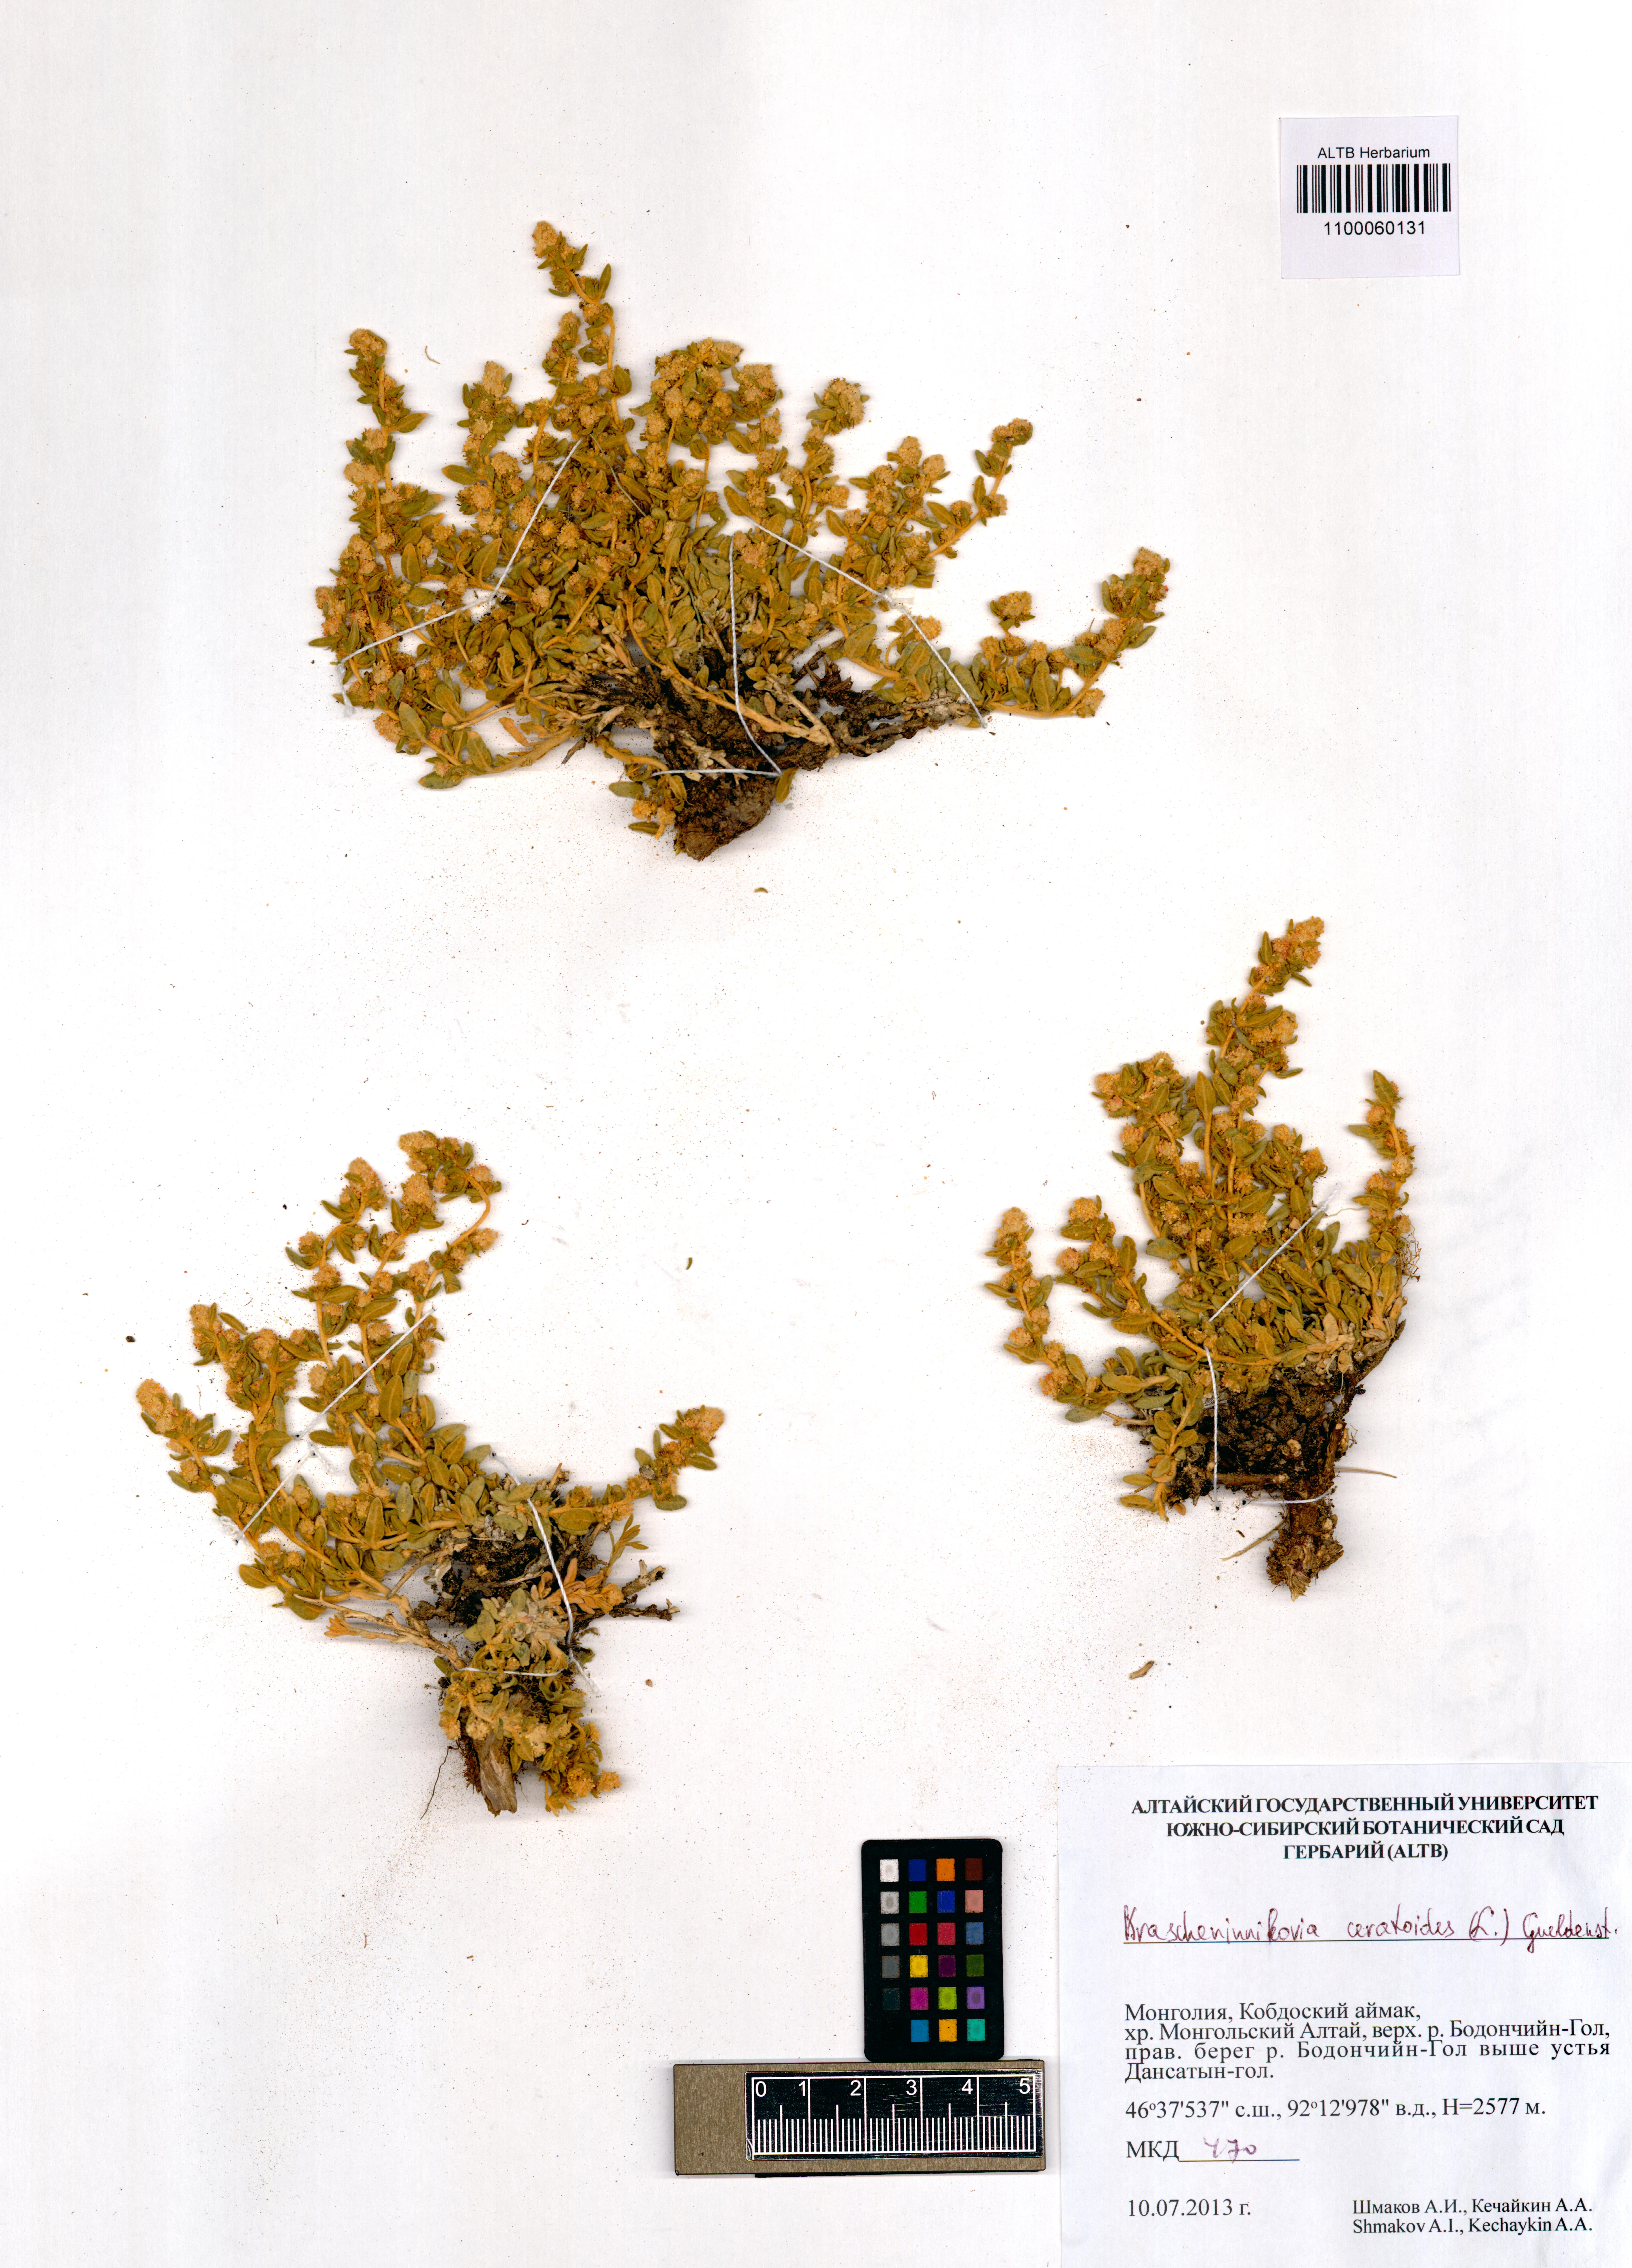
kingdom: Plantae
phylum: Tracheophyta
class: Magnoliopsida
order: Caryophyllales
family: Amaranthaceae
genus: Krascheninnikovia
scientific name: Krascheninnikovia ceratoides
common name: Pamirian winterfat
